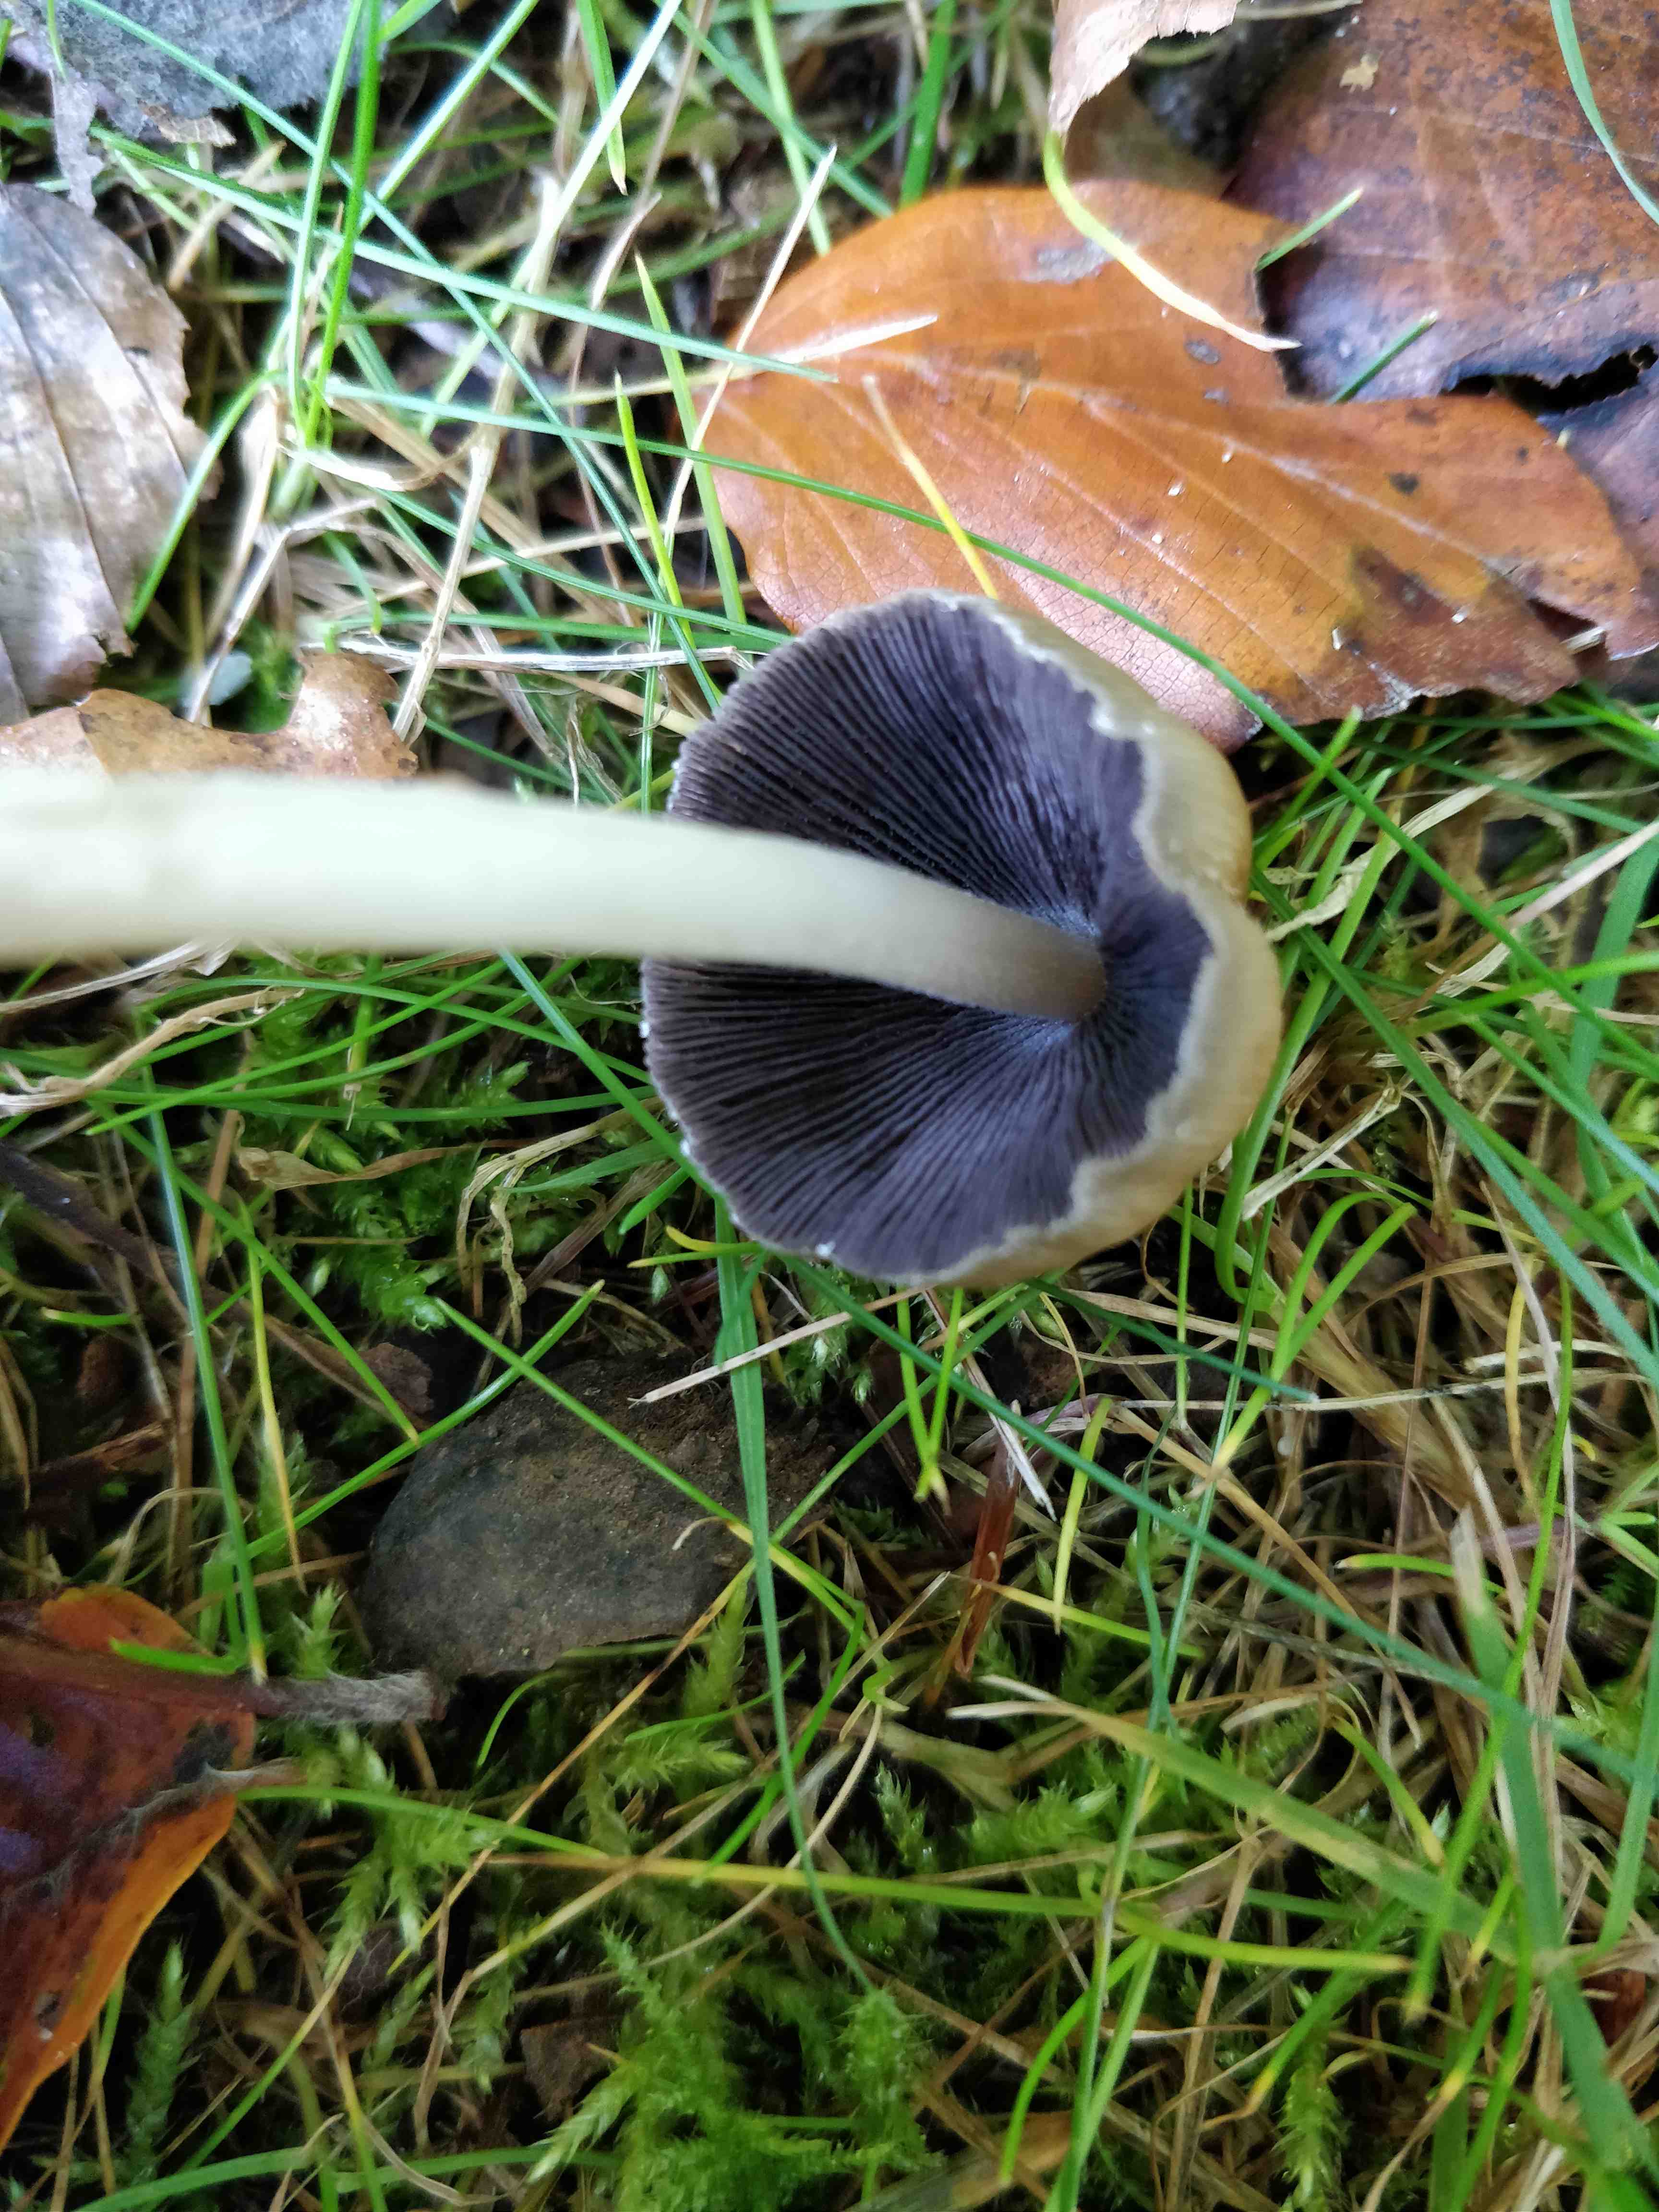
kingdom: Fungi
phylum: Basidiomycota
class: Agaricomycetes
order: Agaricales
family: Psathyrellaceae
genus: Coprinellus
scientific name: Coprinellus
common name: blækhat
